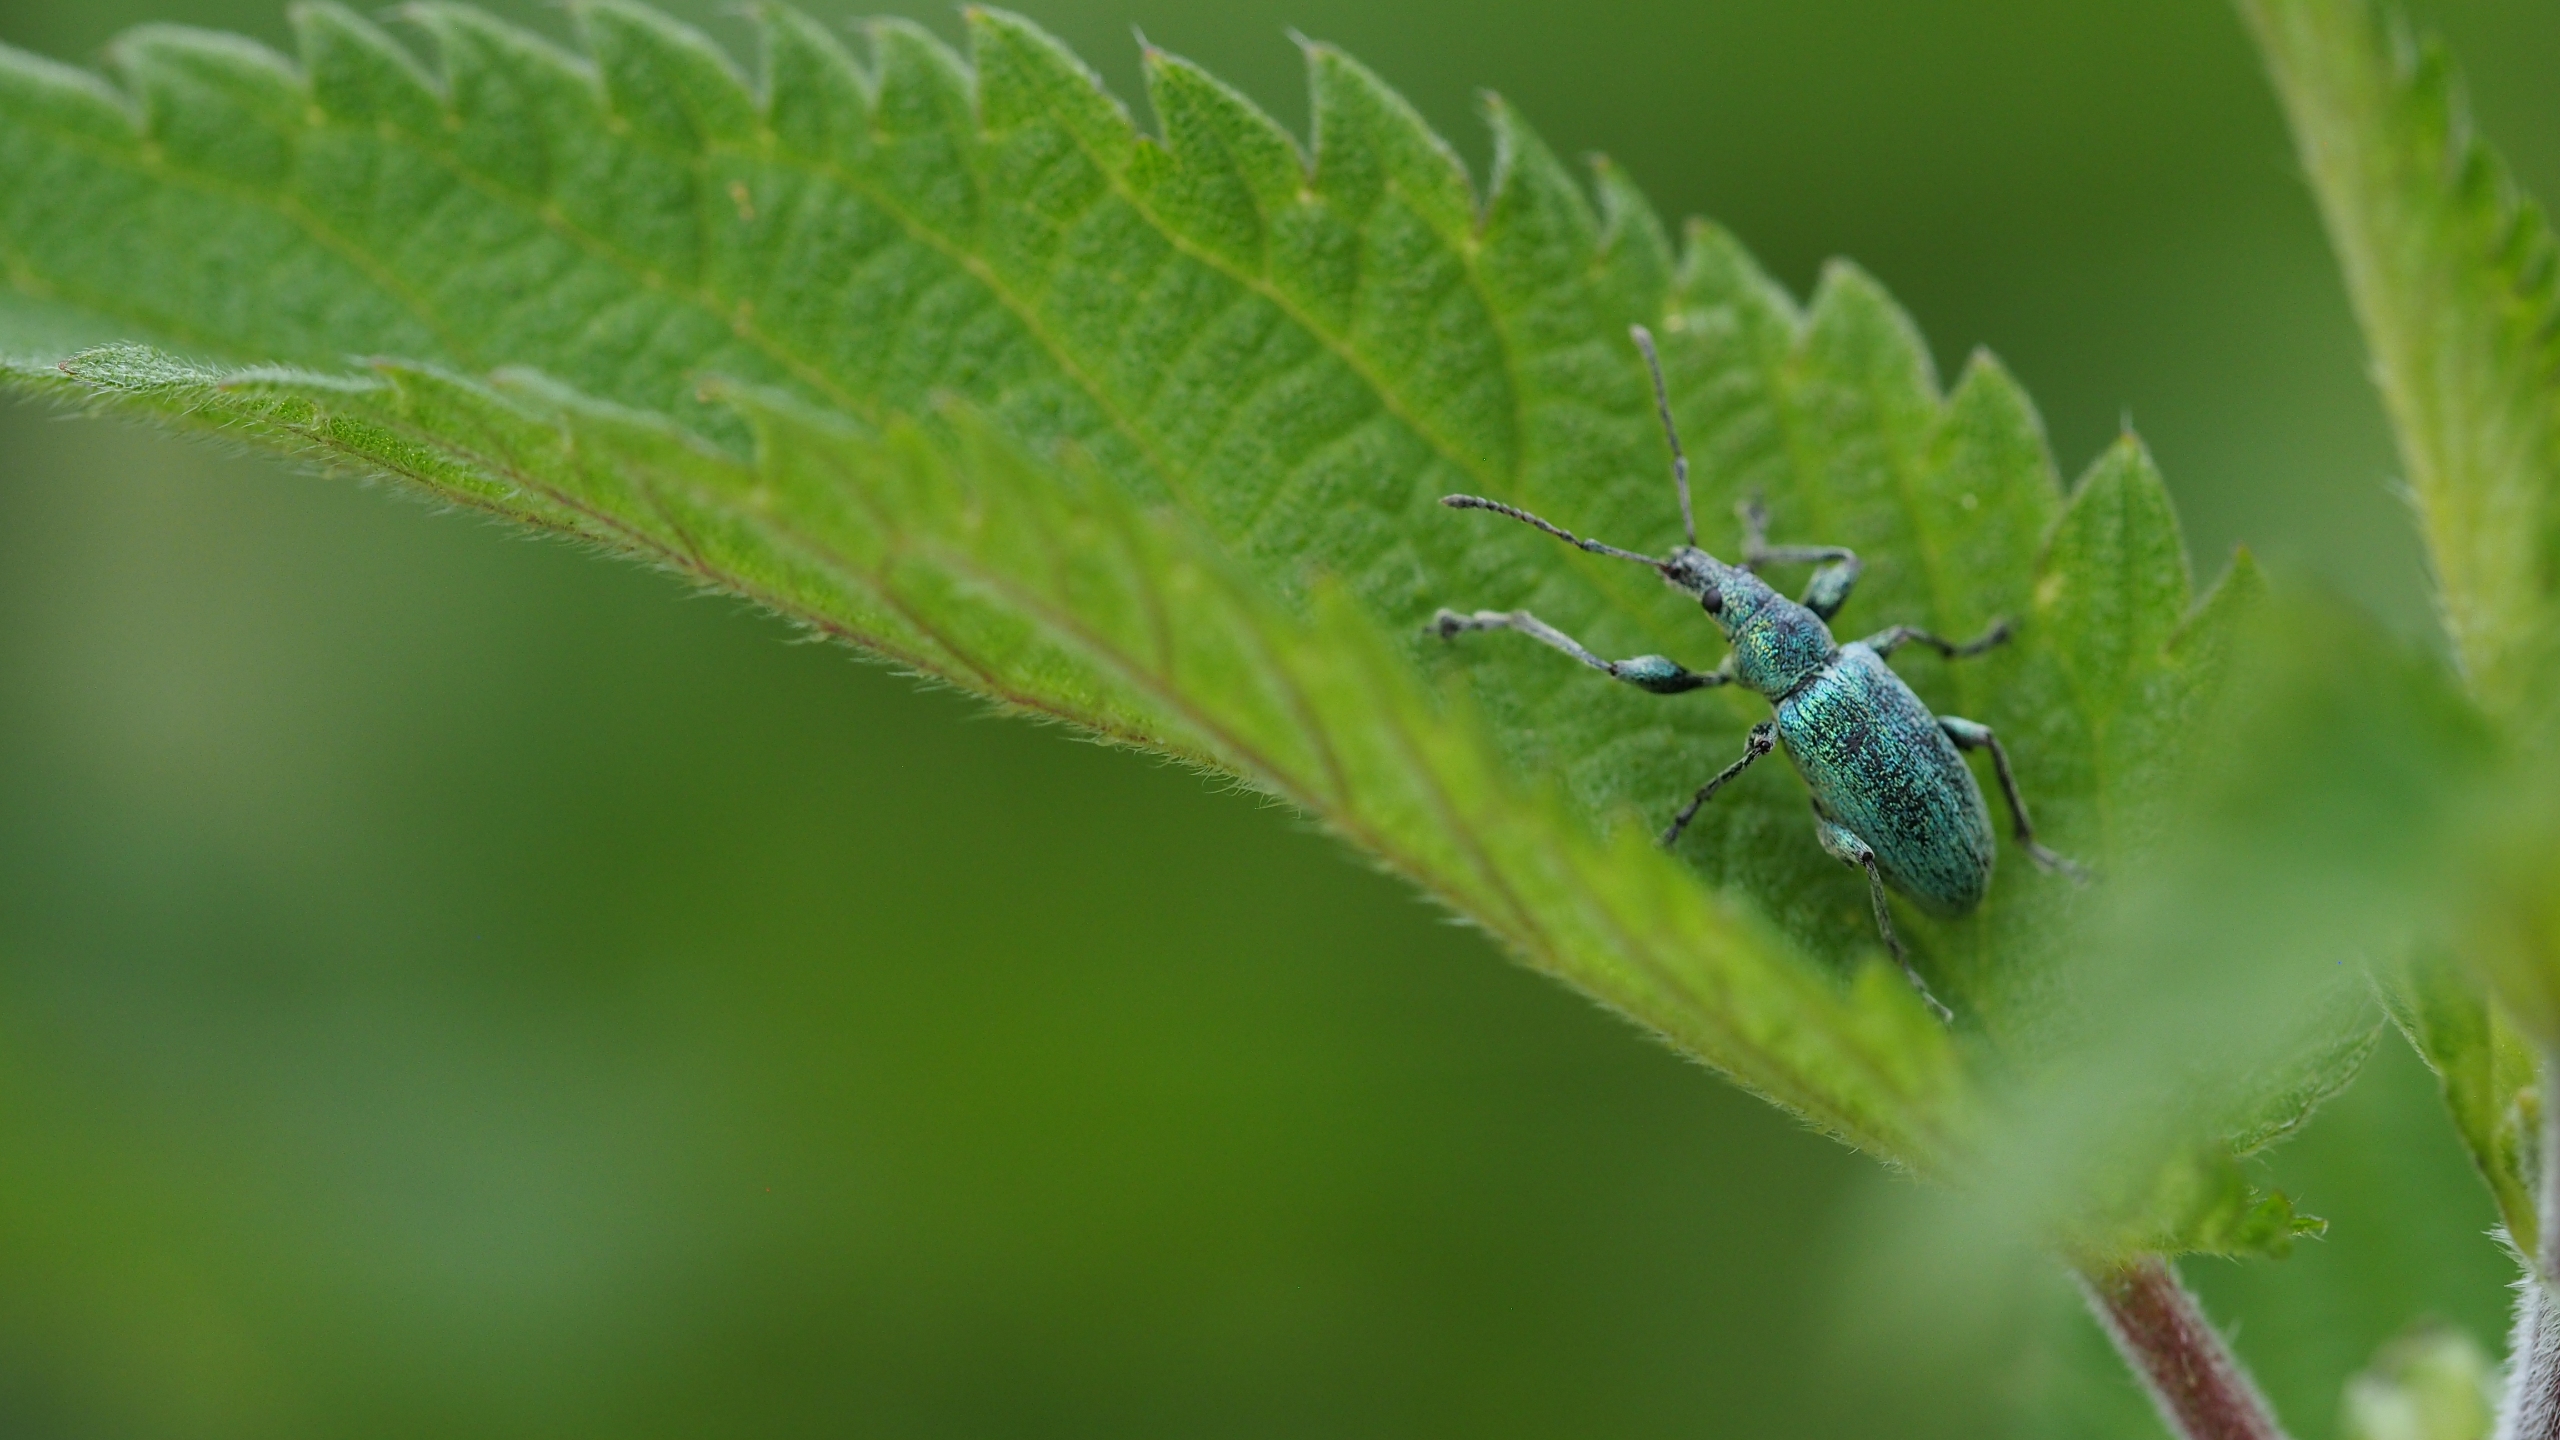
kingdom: Animalia
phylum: Arthropoda
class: Insecta
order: Coleoptera
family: Curculionidae
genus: Phyllobius
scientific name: Phyllobius pomaceus
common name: Nældesnudebille
